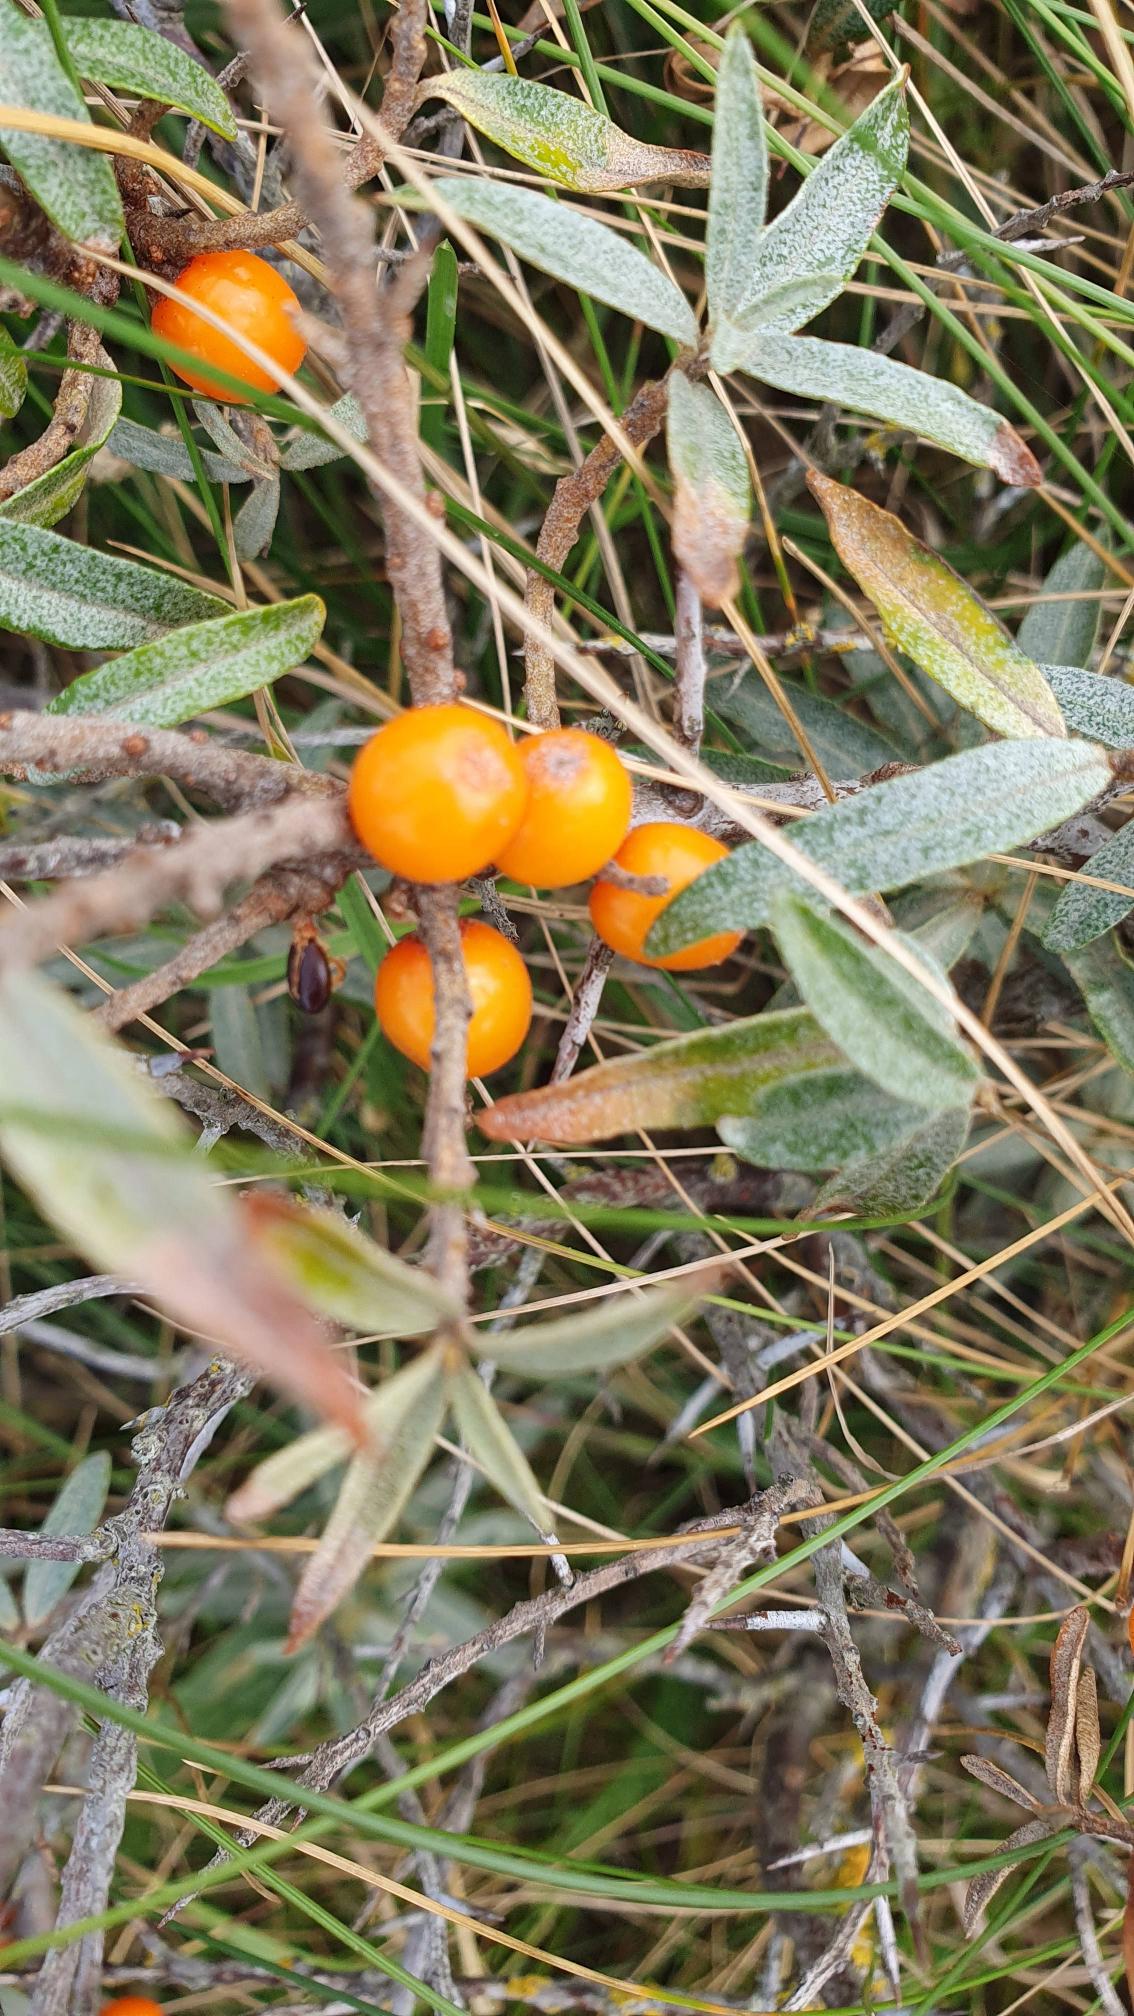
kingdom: Plantae
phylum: Tracheophyta
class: Magnoliopsida
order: Rosales
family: Elaeagnaceae
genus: Hippophae
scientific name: Hippophae rhamnoides
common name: Havtorn
